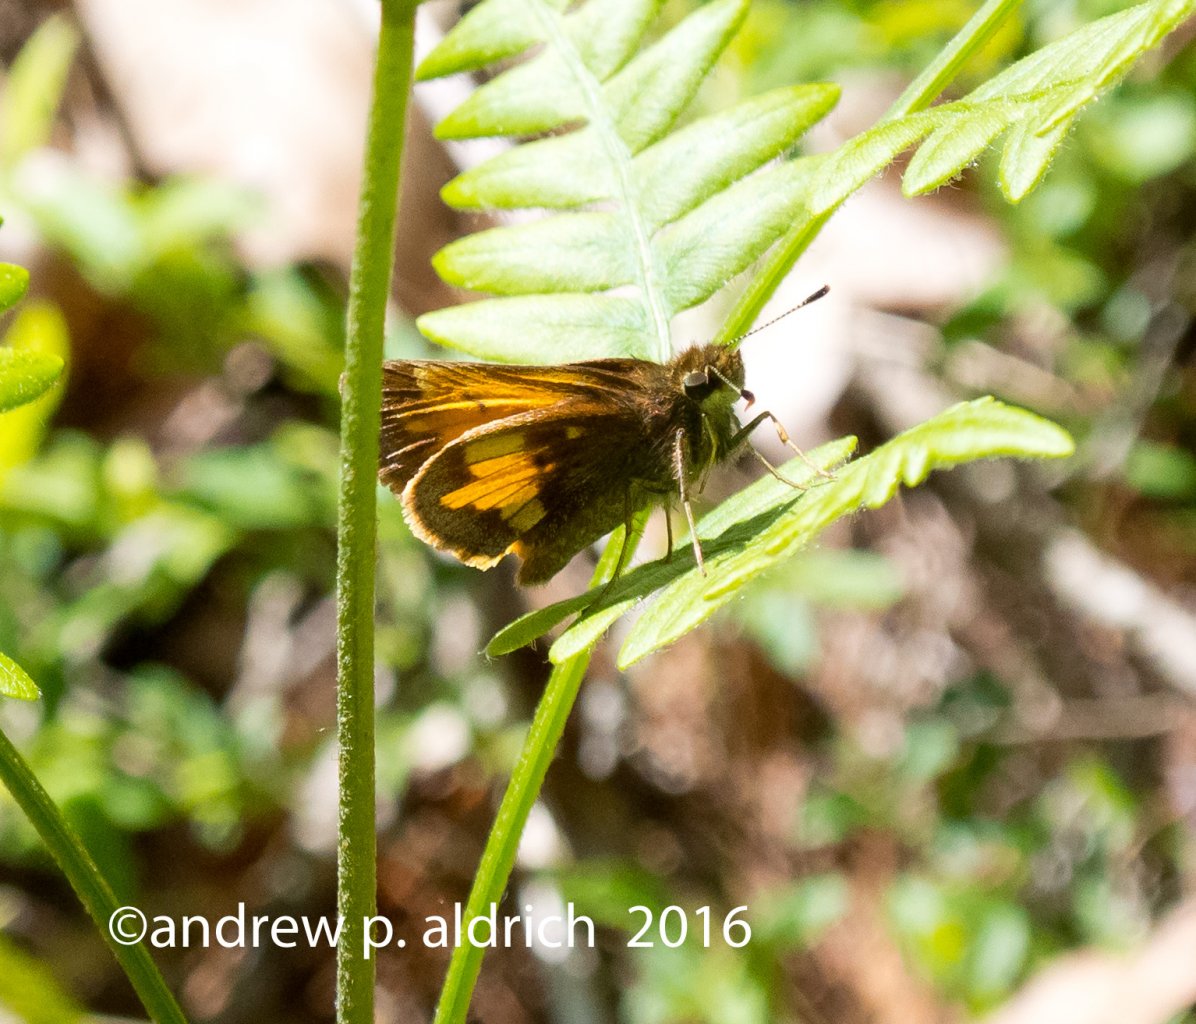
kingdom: Animalia
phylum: Arthropoda
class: Insecta
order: Lepidoptera
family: Hesperiidae
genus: Lon
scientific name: Lon hobomok
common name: Hobomok Skipper
